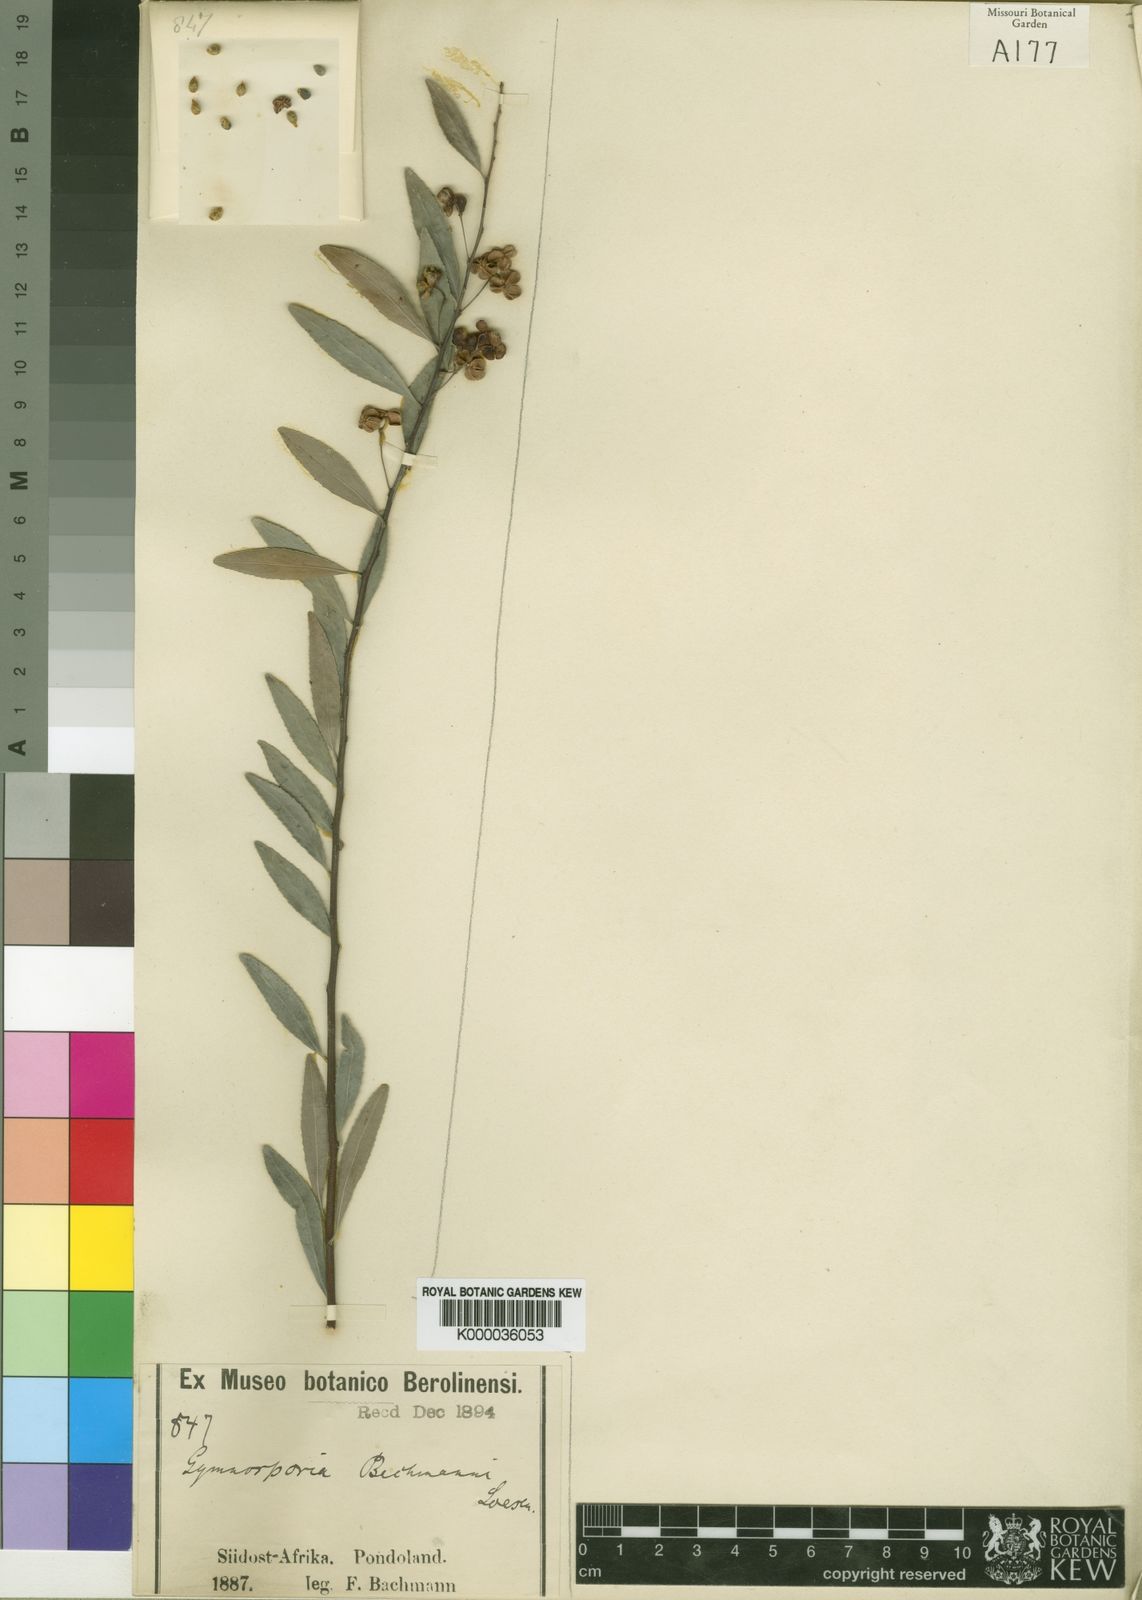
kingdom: Plantae
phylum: Tracheophyta
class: Magnoliopsida
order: Celastrales
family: Celastraceae
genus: Gymnosporia
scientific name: Gymnosporia bachmannii
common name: Willow koko tree
